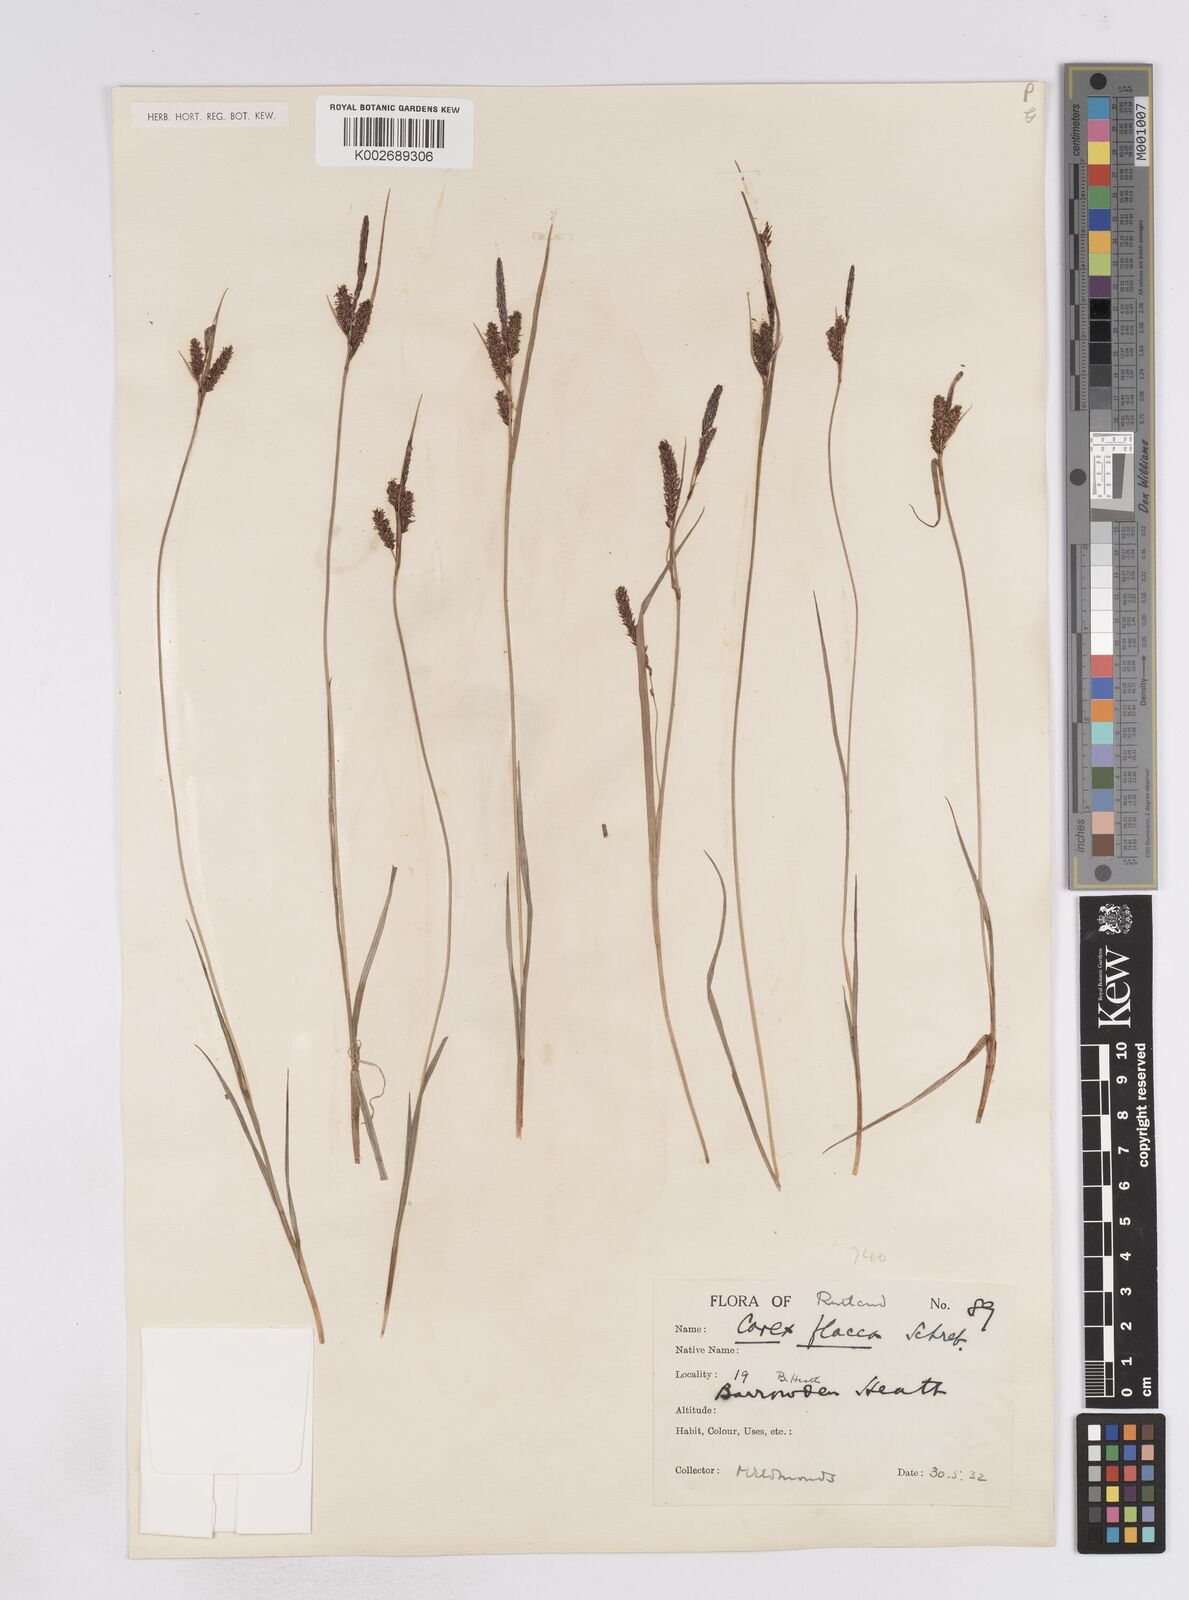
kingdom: Plantae
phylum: Tracheophyta
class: Liliopsida
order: Poales
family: Cyperaceae
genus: Carex
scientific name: Carex flacca
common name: Glaucous sedge
